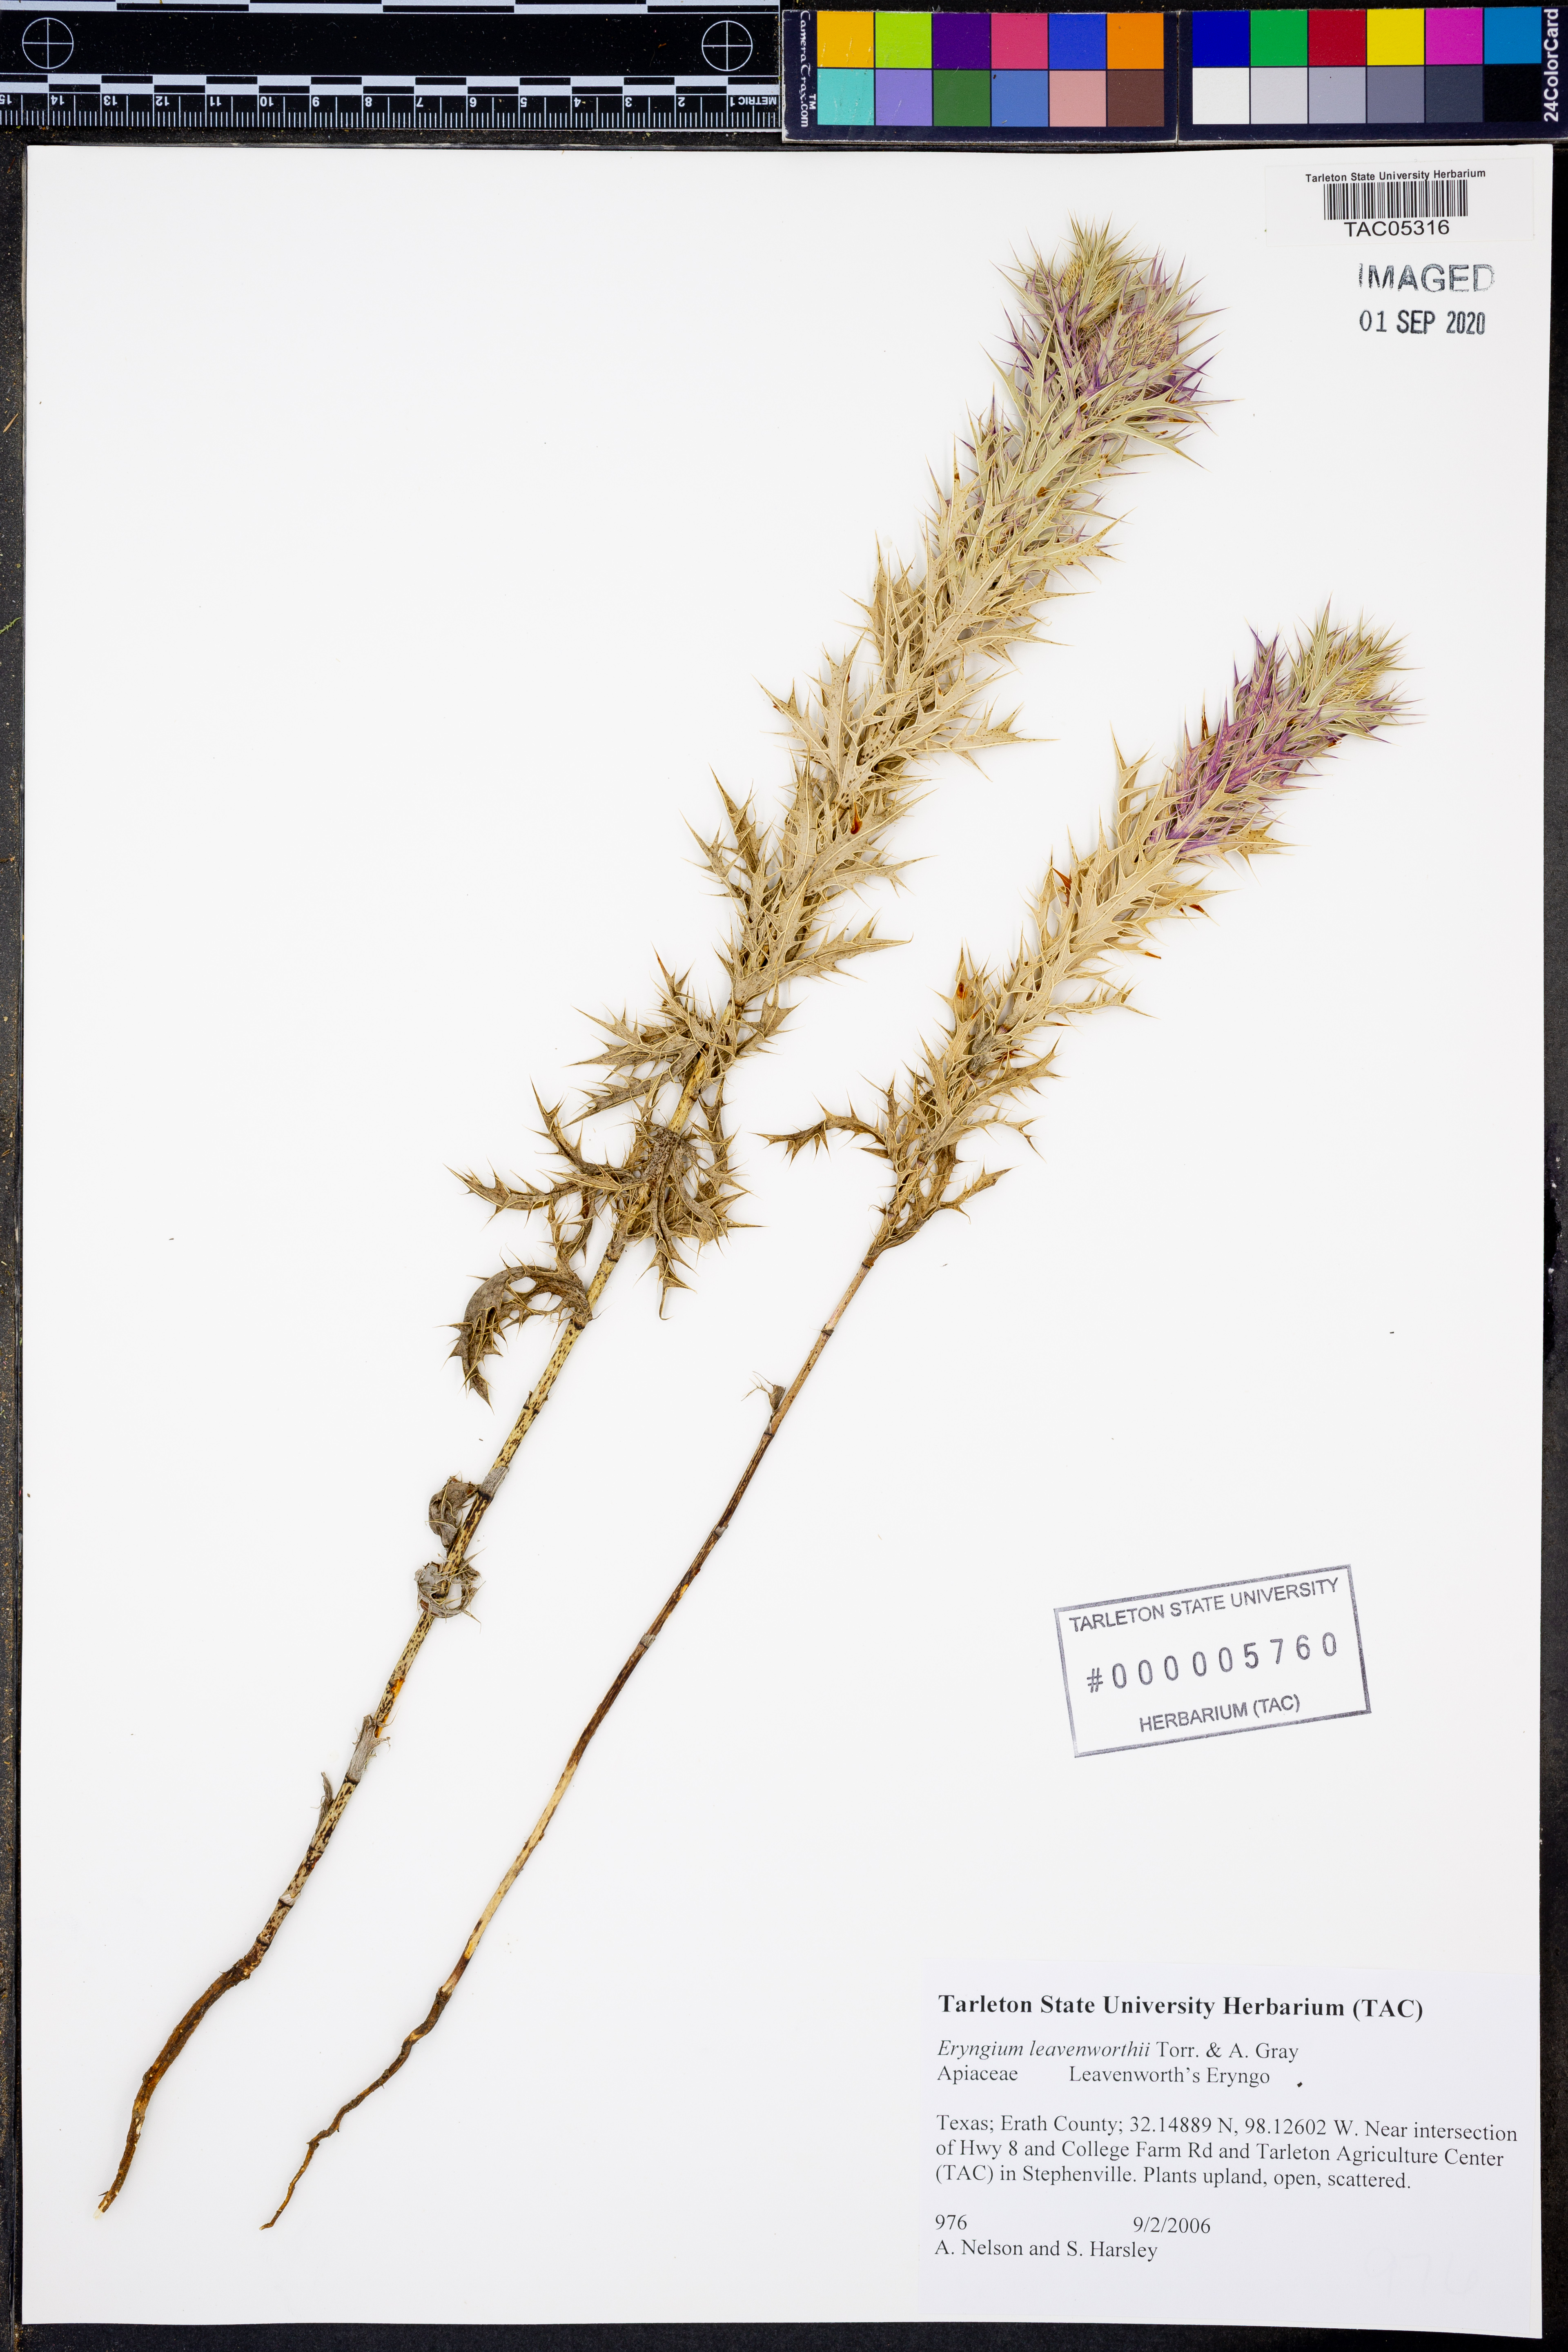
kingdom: Plantae
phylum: Tracheophyta
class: Magnoliopsida
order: Apiales
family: Apiaceae
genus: Eryngium
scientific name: Eryngium leavenworthii
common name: Leavenworth's eryngo
